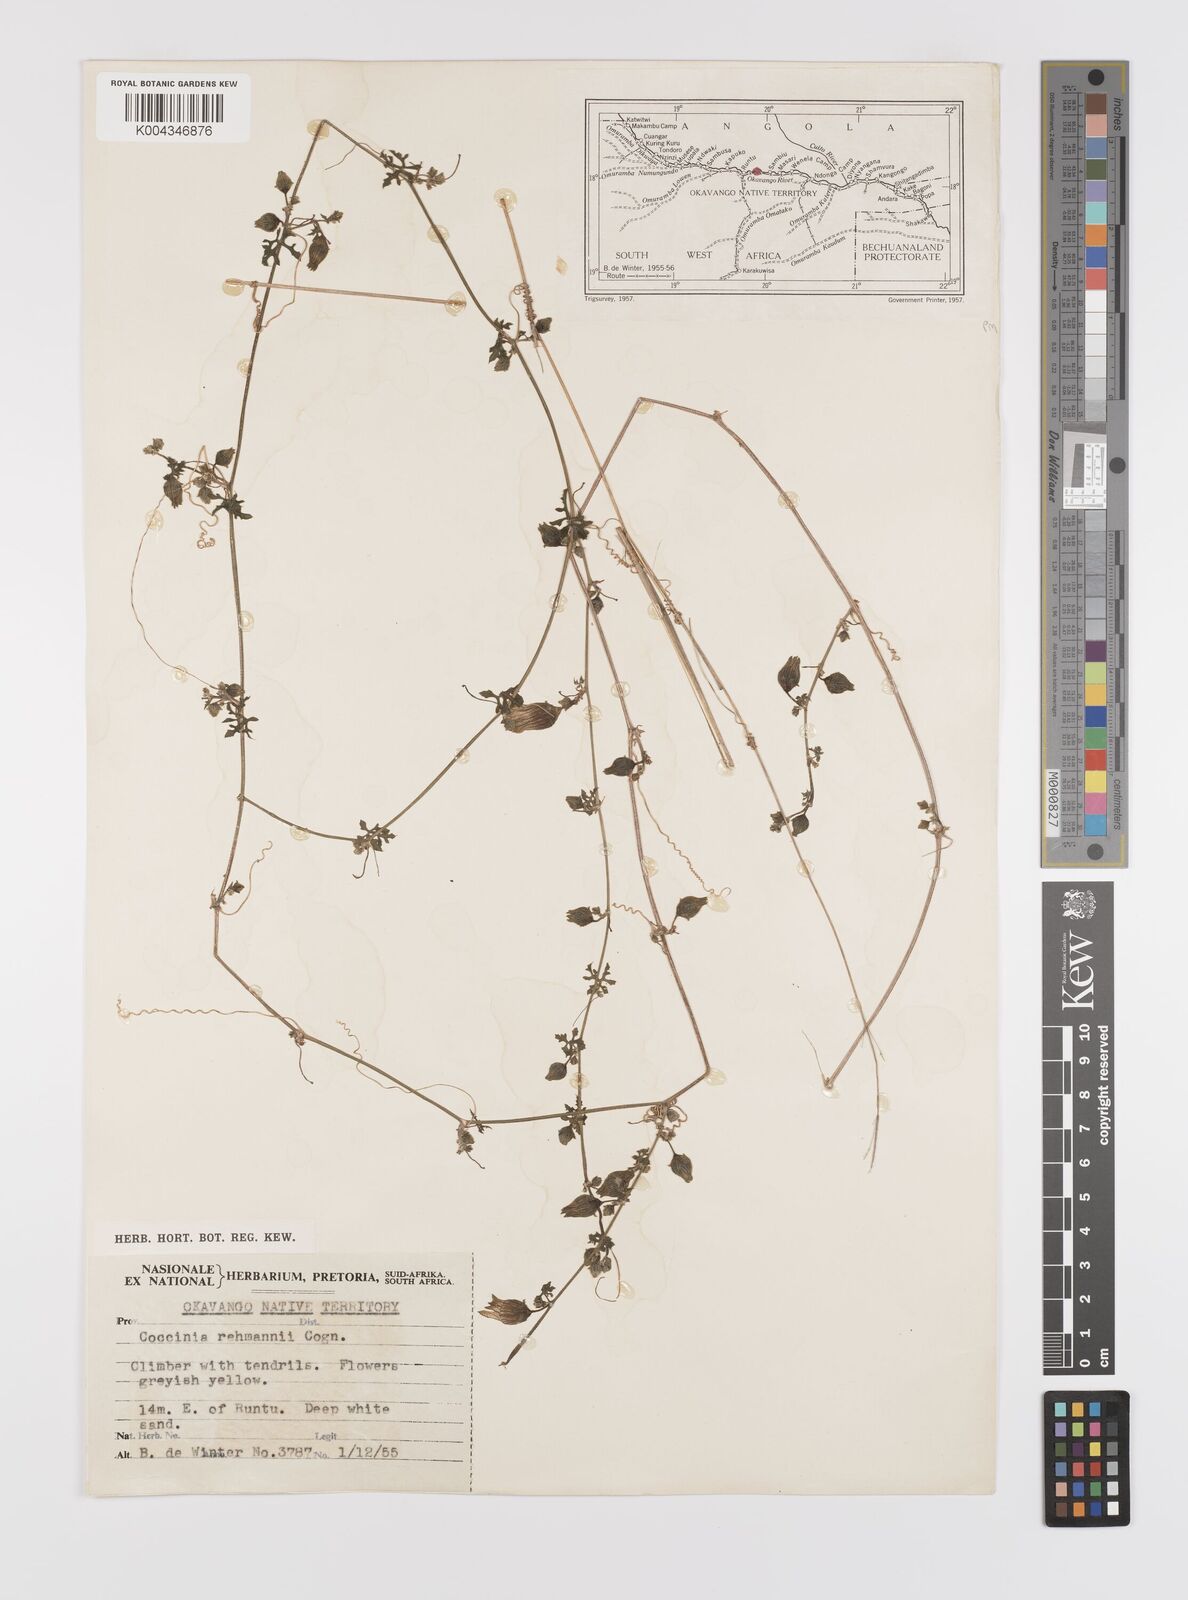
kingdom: Plantae
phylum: Tracheophyta
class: Magnoliopsida
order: Cucurbitales
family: Cucurbitaceae
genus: Coccinia
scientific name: Coccinia rehmannii
